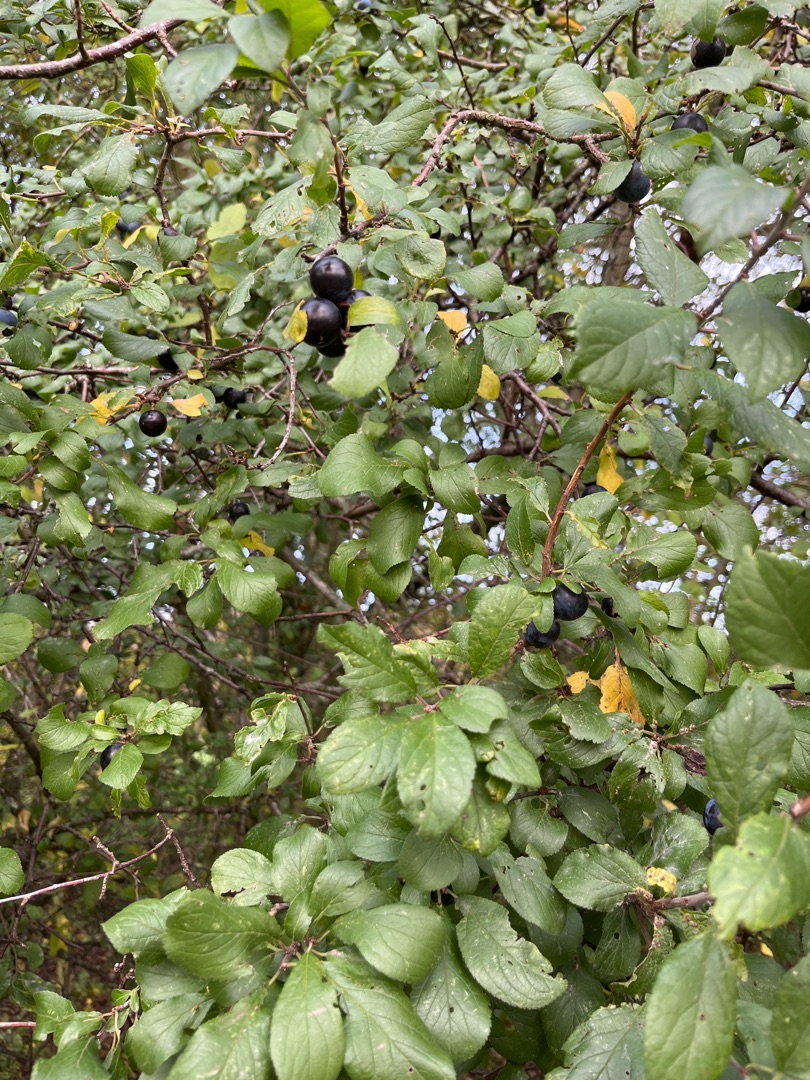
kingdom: Plantae
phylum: Tracheophyta
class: Magnoliopsida
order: Rosales
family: Rosaceae
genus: Prunus
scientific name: Prunus domestica
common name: Kræge
